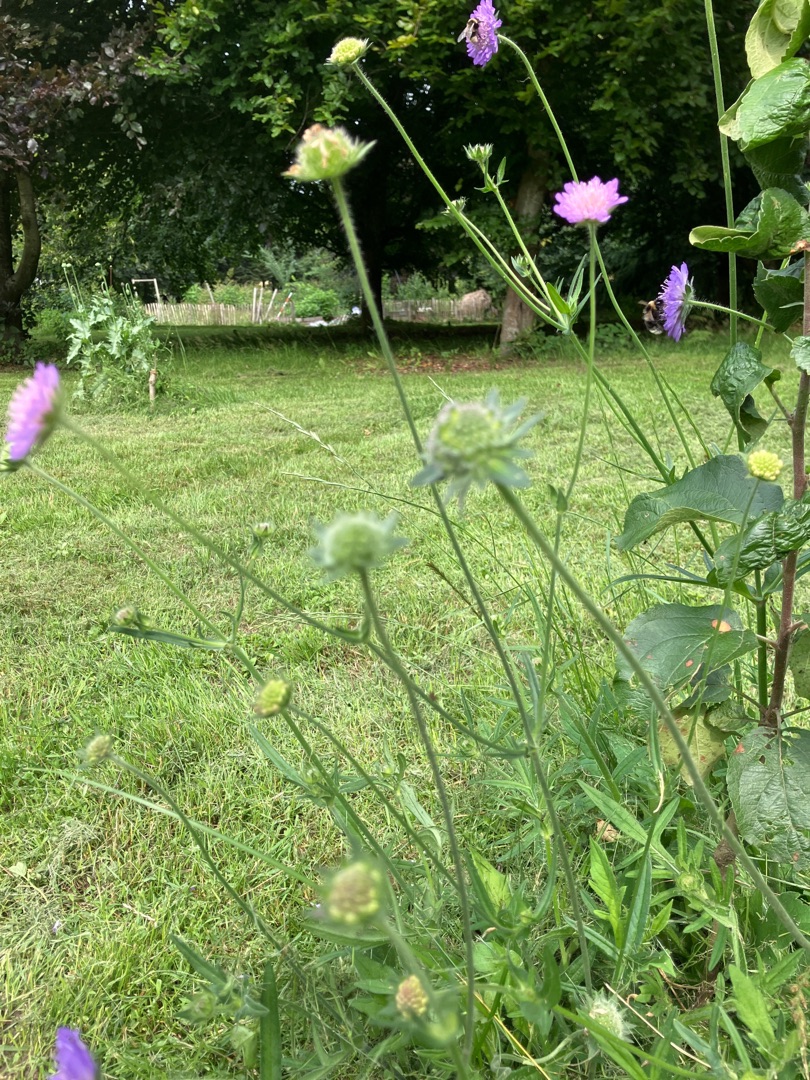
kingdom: Plantae
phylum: Tracheophyta
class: Magnoliopsida
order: Dipsacales
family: Caprifoliaceae
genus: Knautia
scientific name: Knautia arvensis
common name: Blåhat
